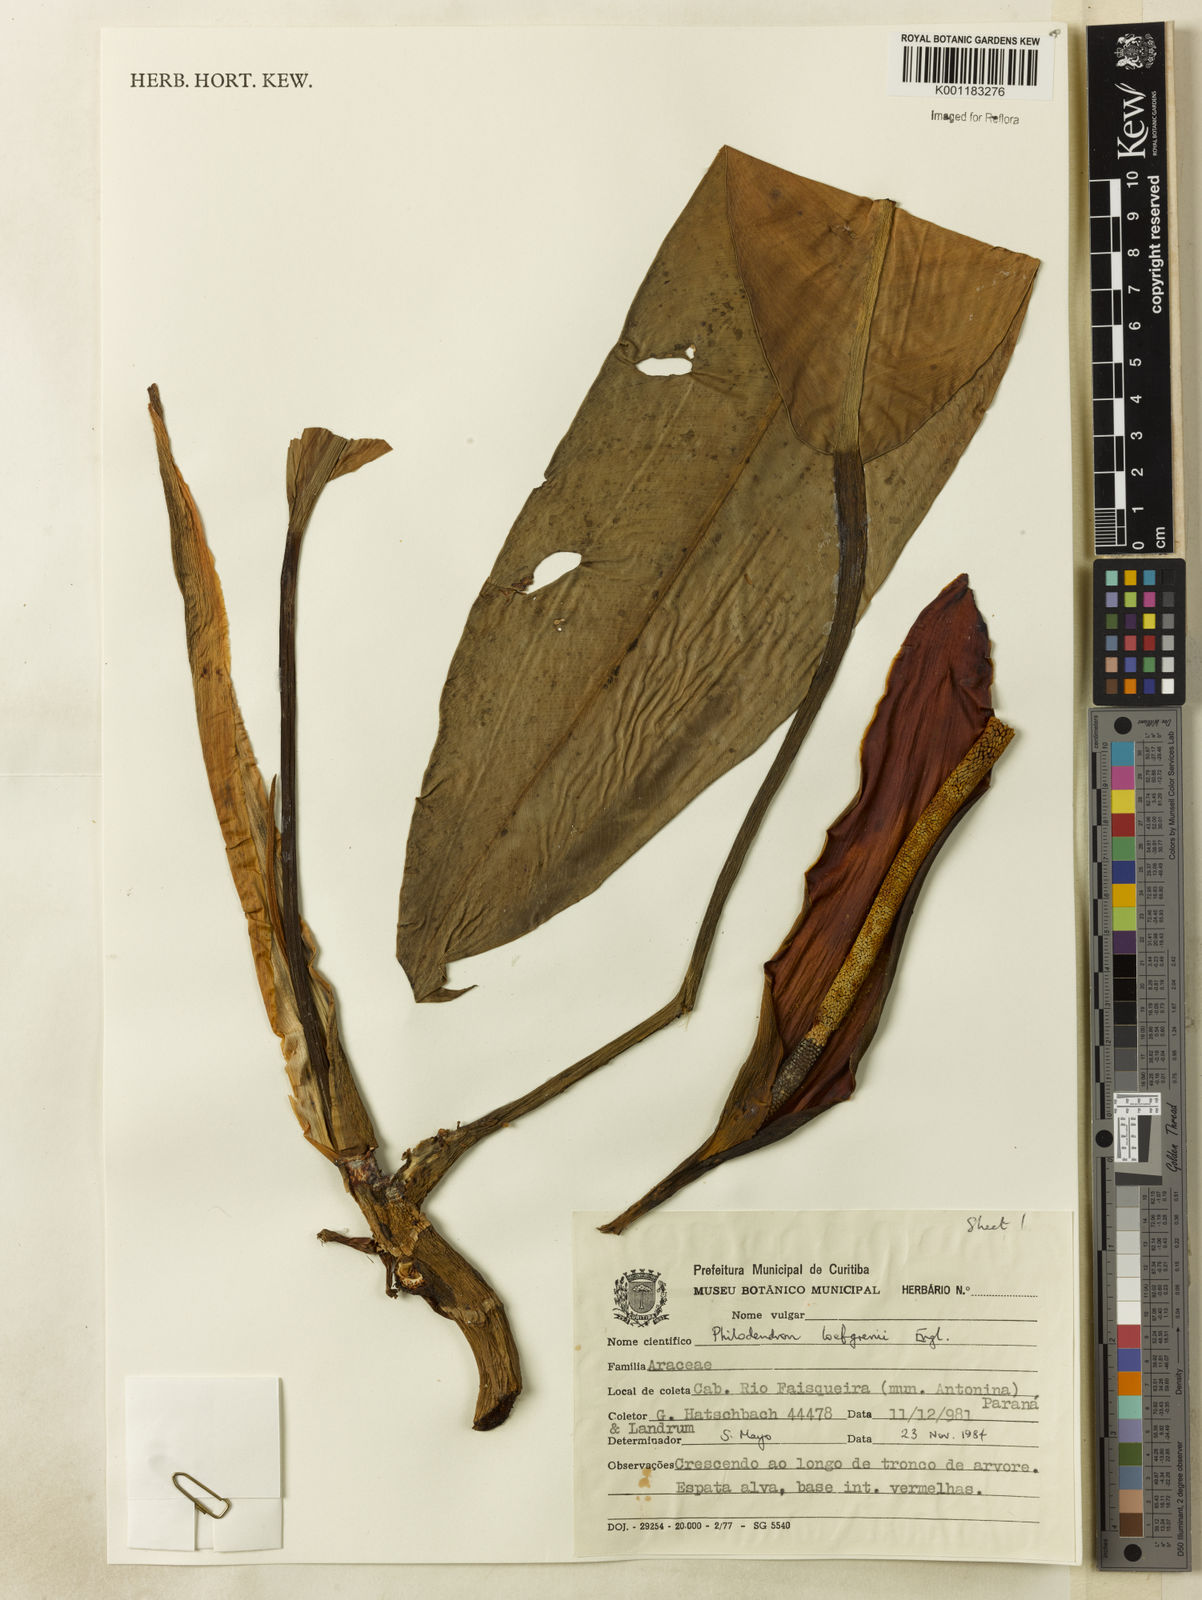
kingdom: Plantae
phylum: Tracheophyta
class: Liliopsida
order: Alismatales
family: Araceae
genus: Philodendron
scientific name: Philodendron loefgrenii
